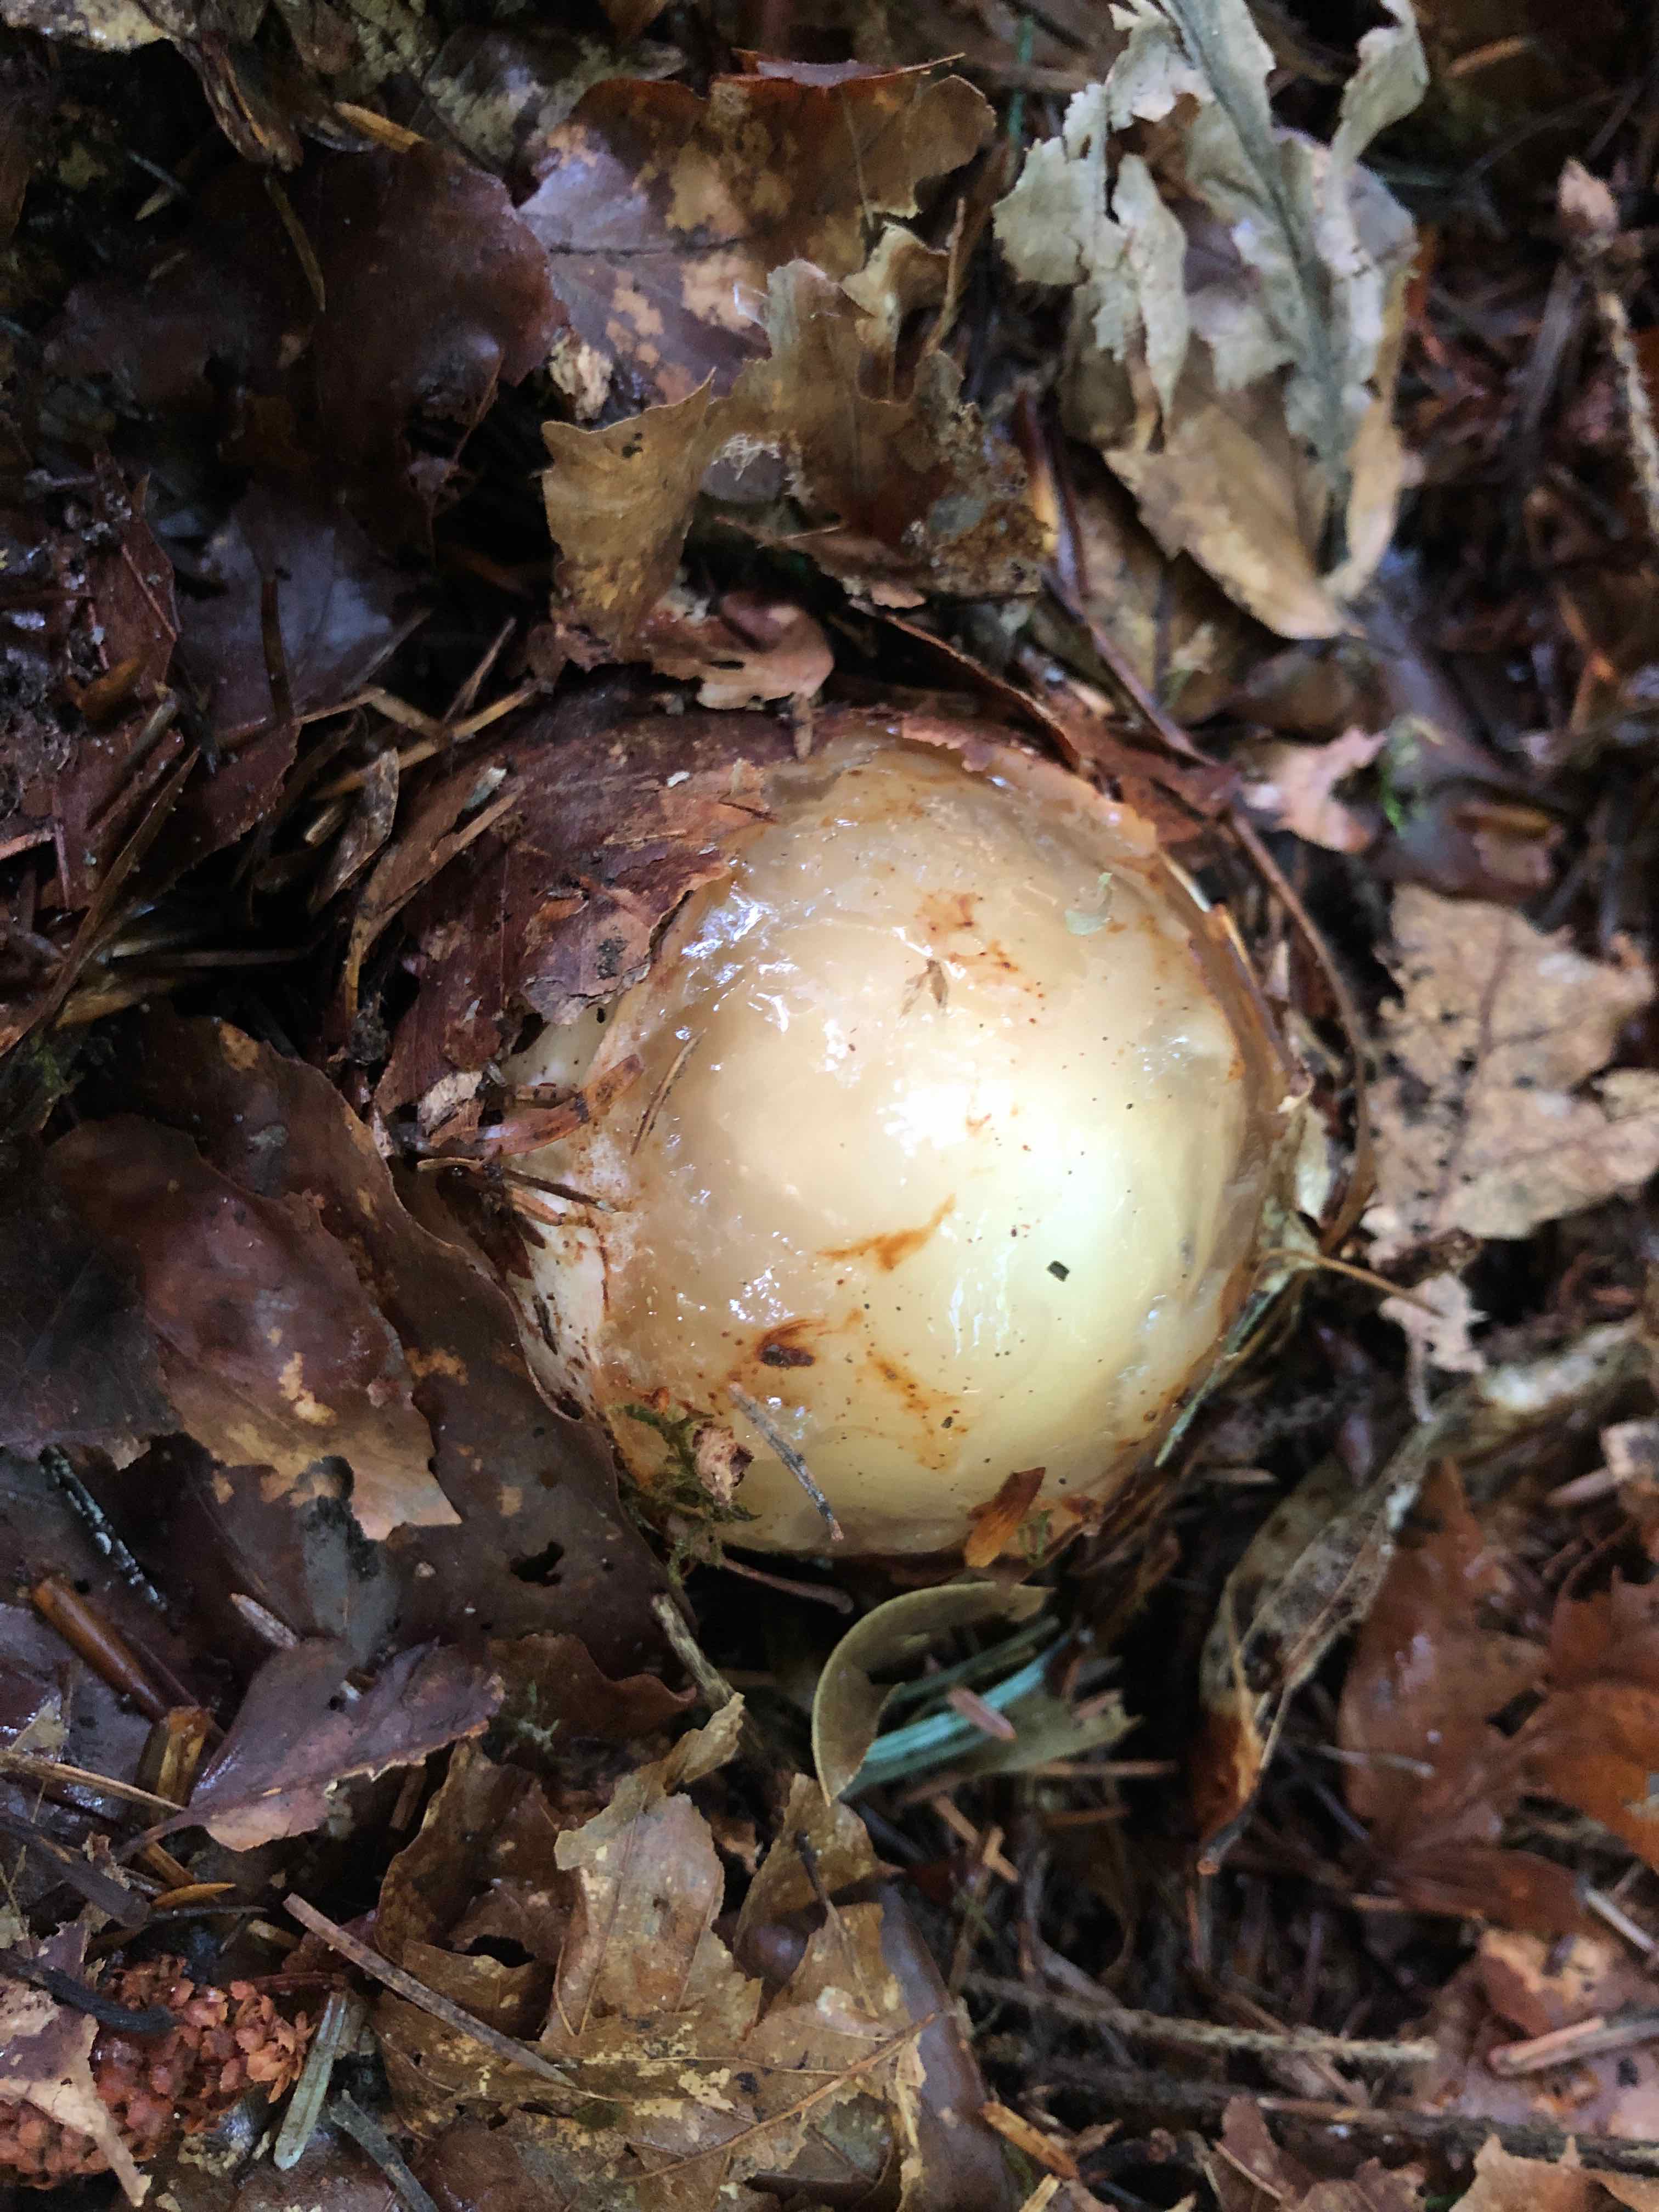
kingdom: Fungi
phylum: Basidiomycota
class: Agaricomycetes
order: Phallales
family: Phallaceae
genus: Phallus
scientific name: Phallus impudicus
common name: almindelig stinksvamp
